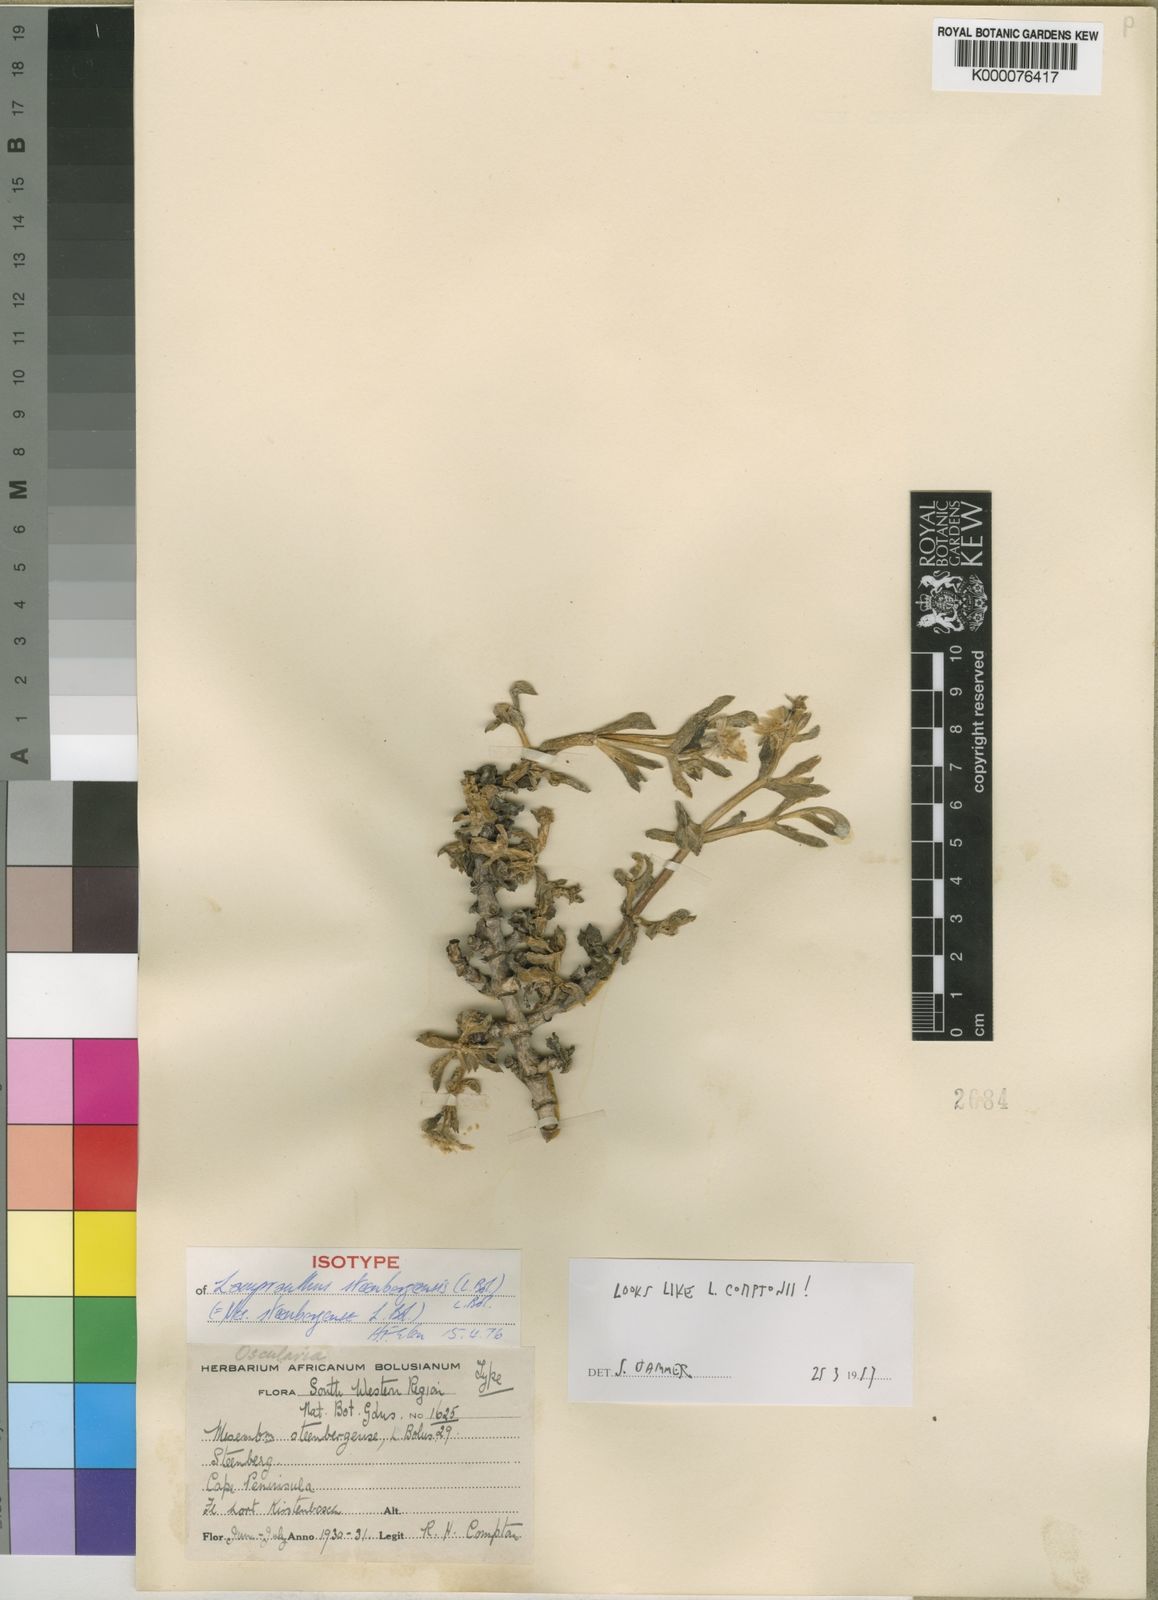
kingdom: Plantae
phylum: Tracheophyta
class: Magnoliopsida
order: Caryophyllales
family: Aizoaceae
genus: Oscularia
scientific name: Oscularia steenbergensis
